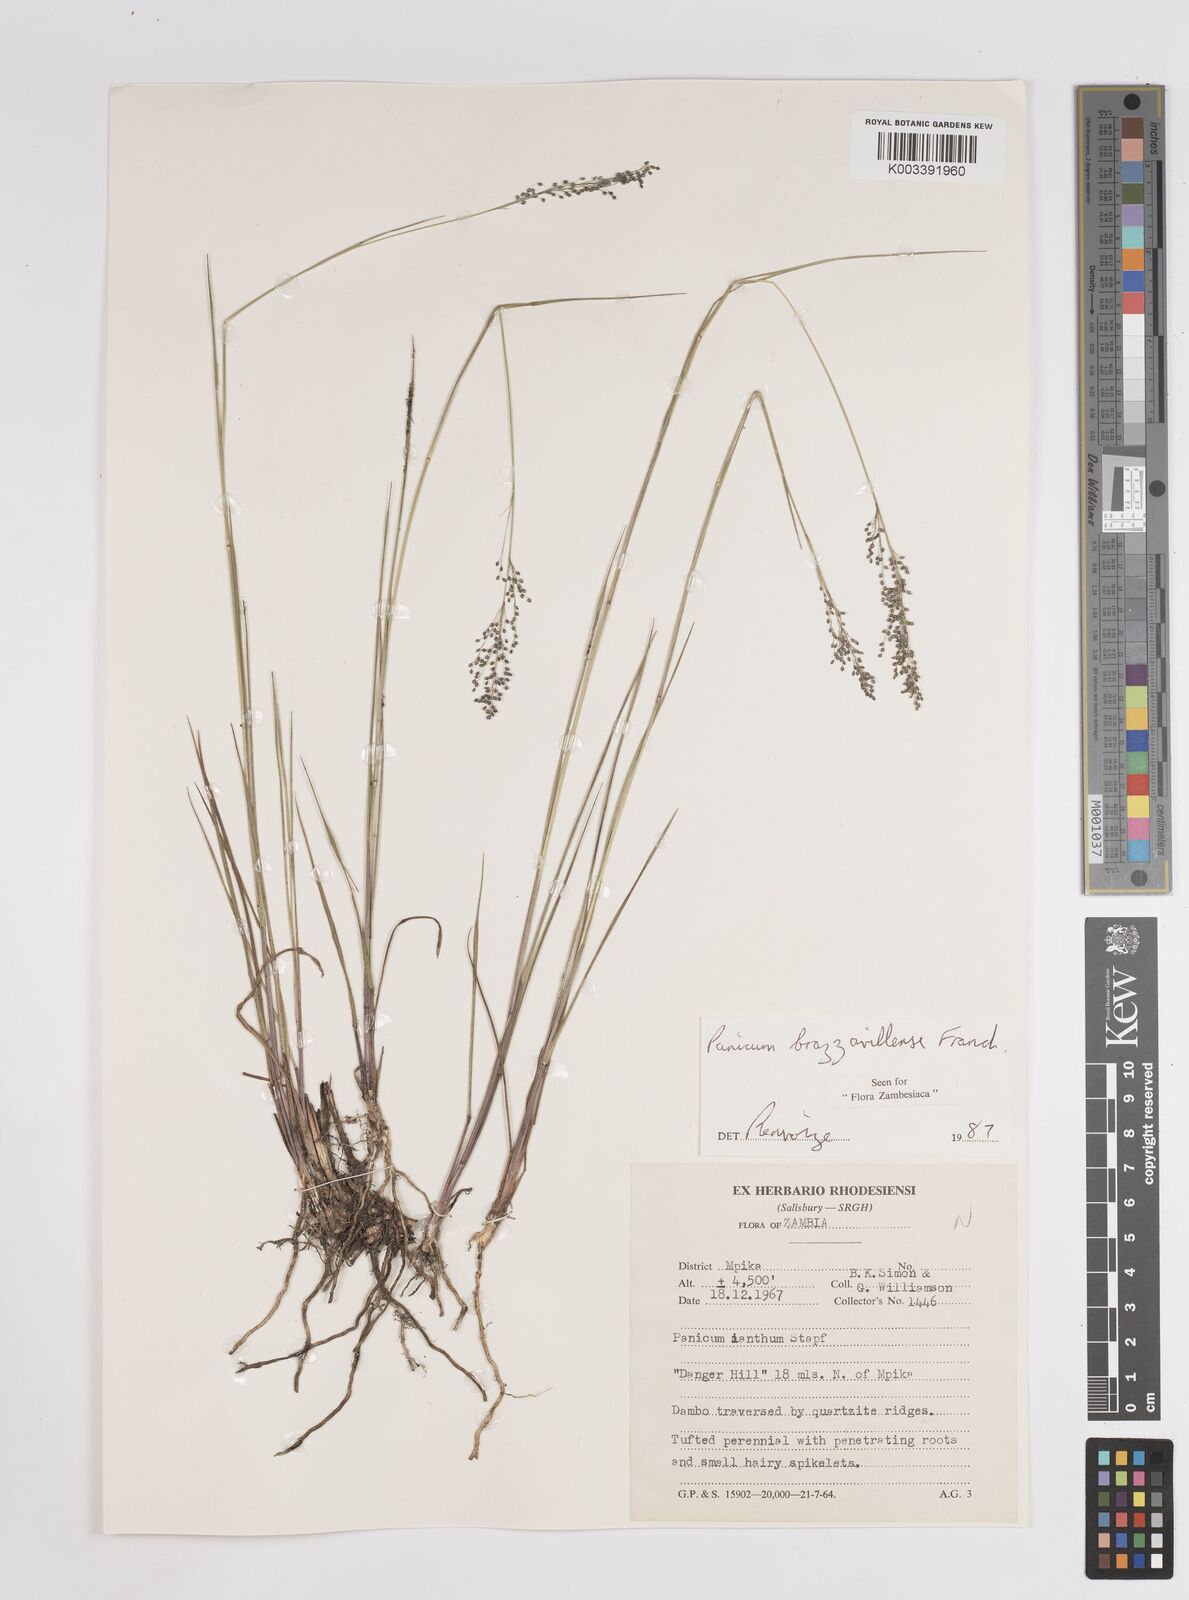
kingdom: Plantae
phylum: Tracheophyta
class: Liliopsida
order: Poales
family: Poaceae
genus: Trichanthecium
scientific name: Trichanthecium brazzavillense
